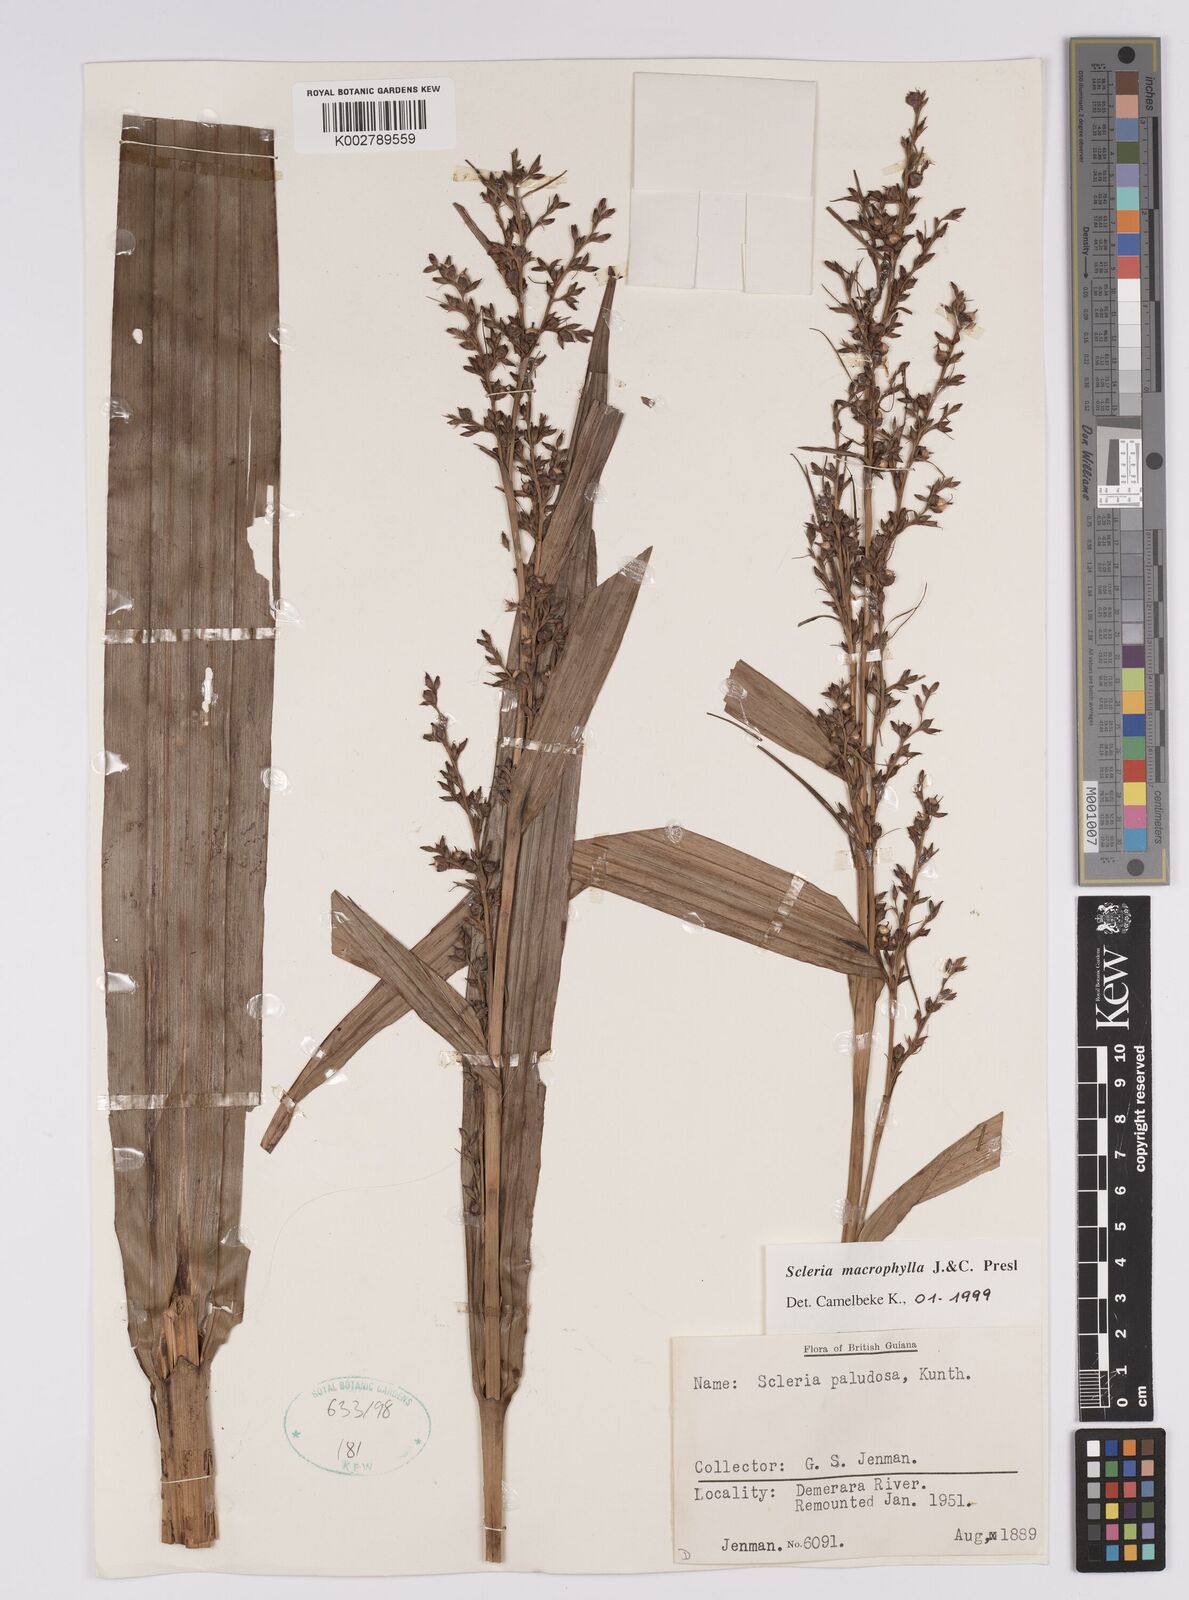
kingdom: Plantae
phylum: Tracheophyta
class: Liliopsida
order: Poales
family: Cyperaceae
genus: Scleria
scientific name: Scleria macrophylla
